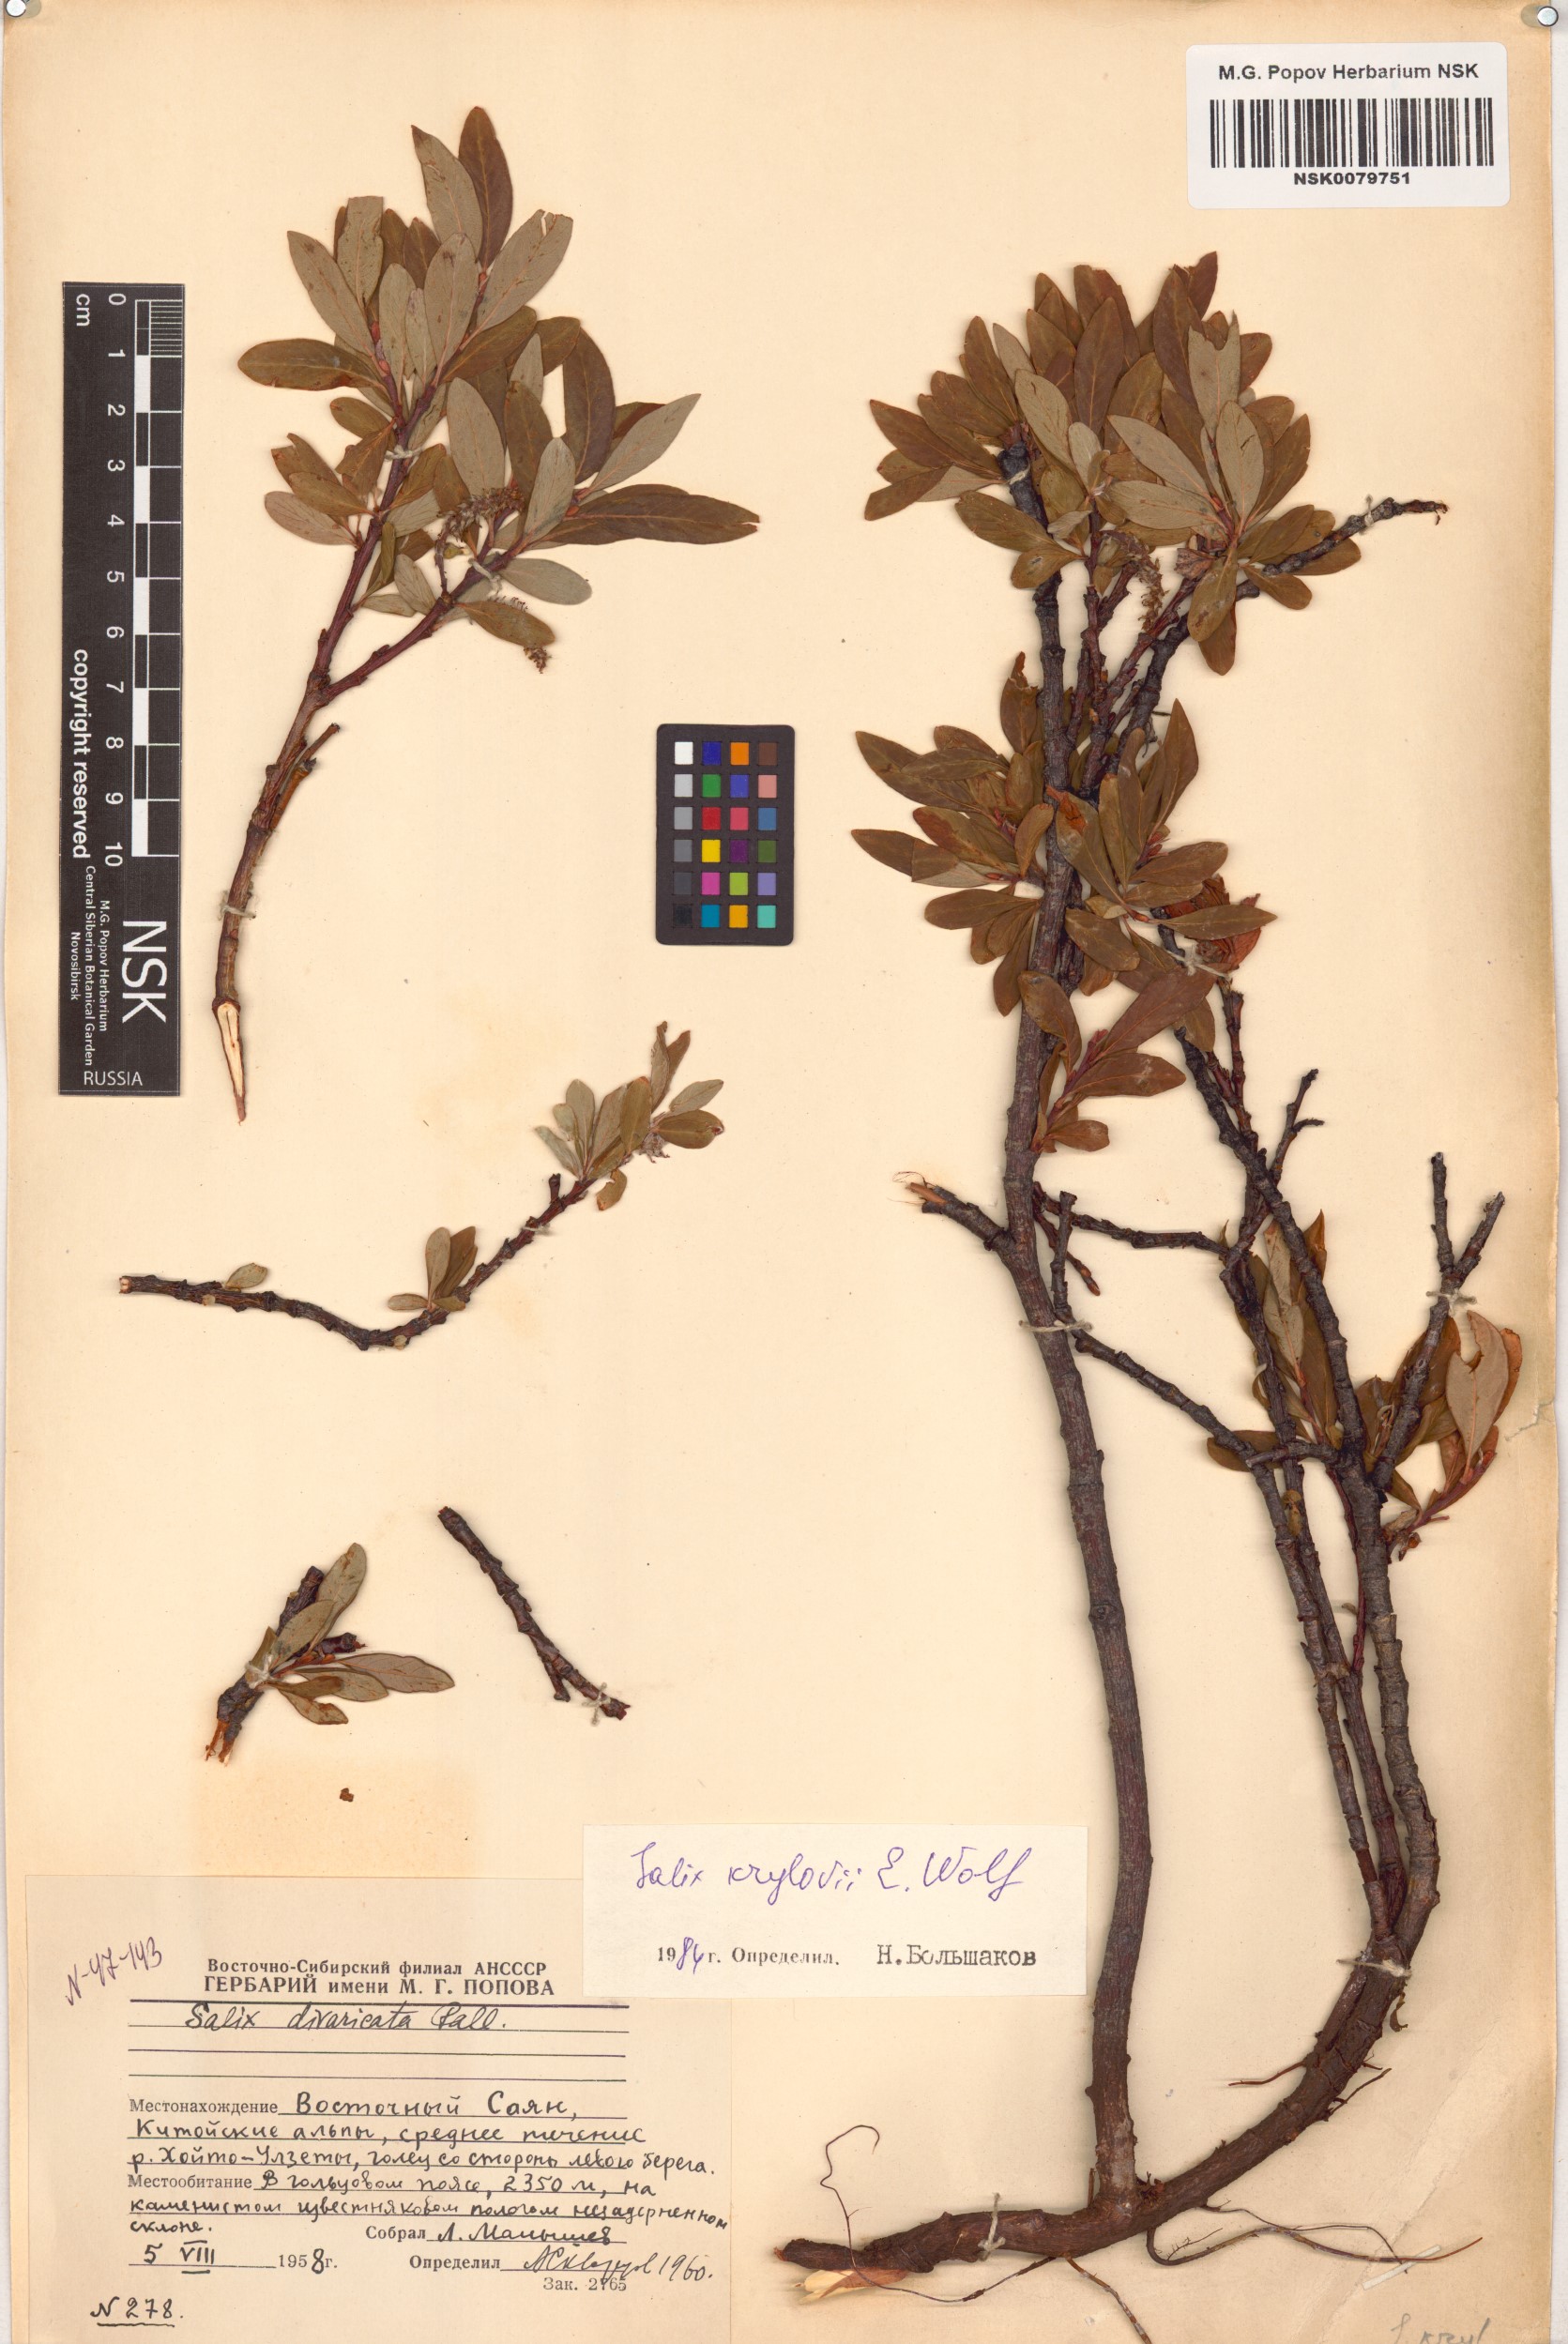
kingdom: Plantae
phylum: Tracheophyta
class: Magnoliopsida
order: Malpighiales
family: Salicaceae
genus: Salix
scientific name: Salix krylovii
